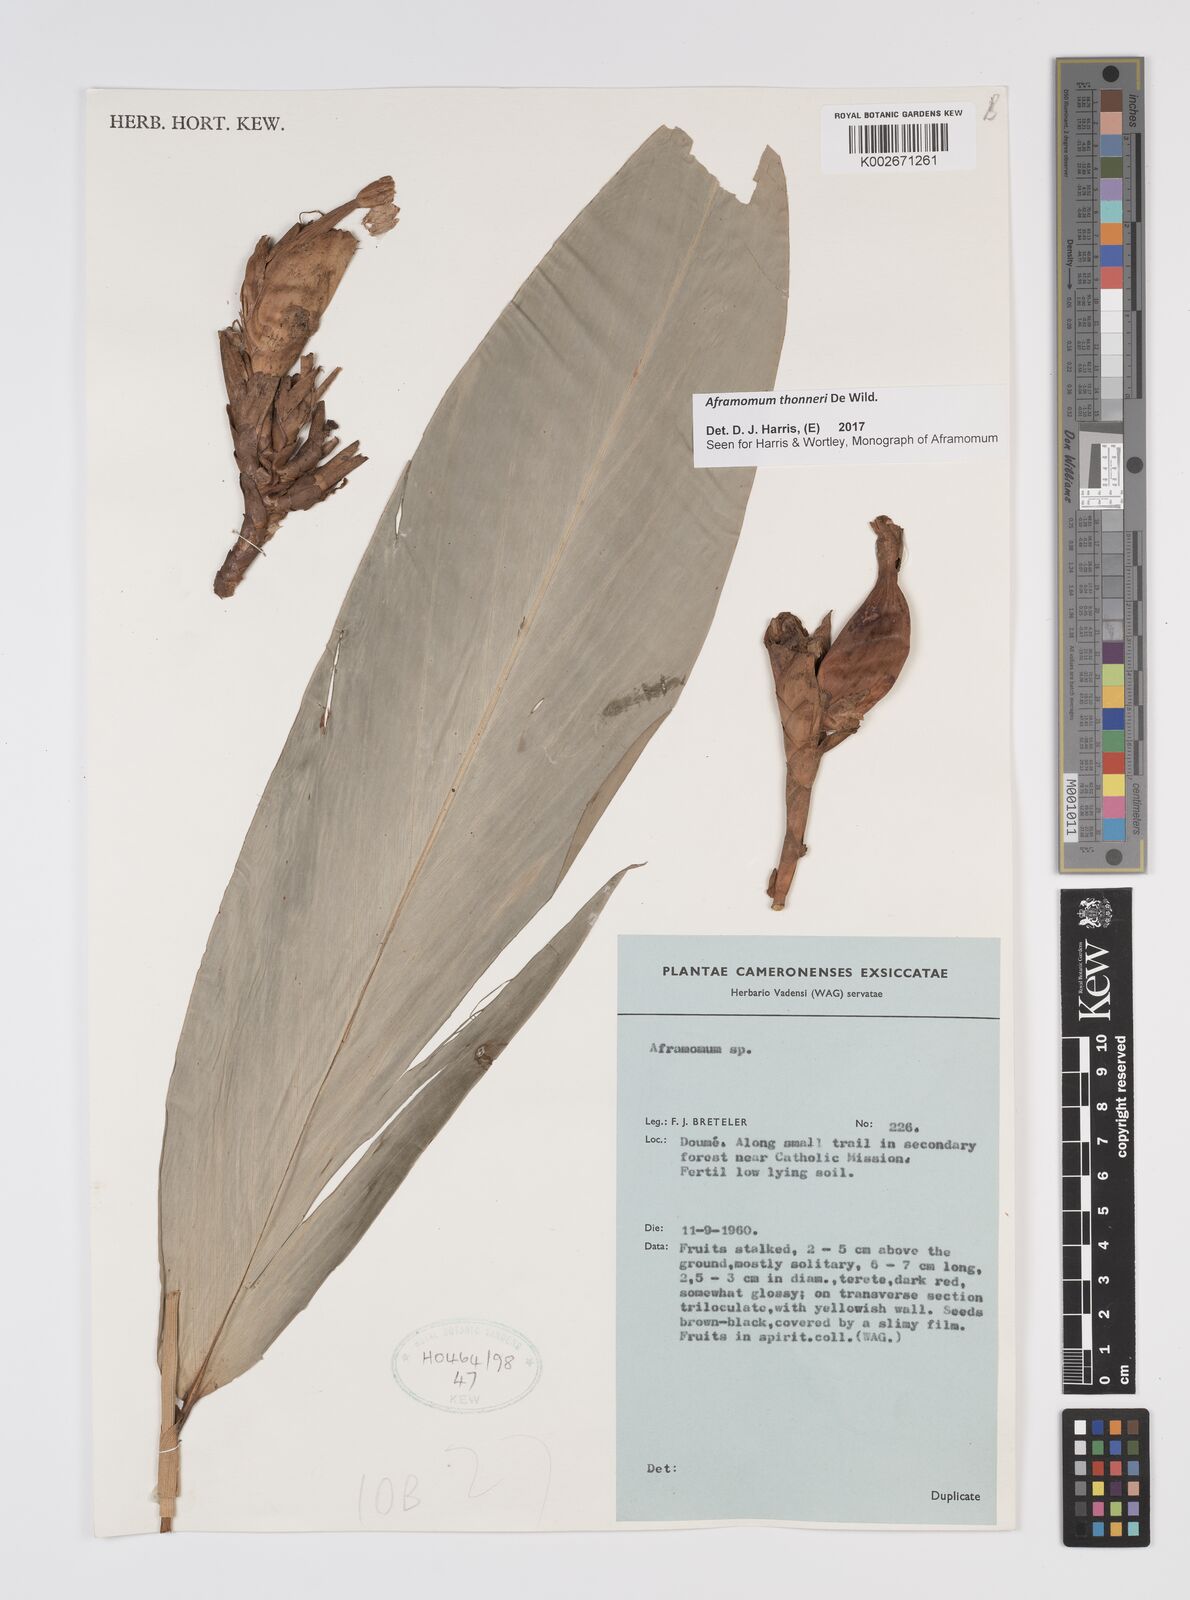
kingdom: Plantae
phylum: Tracheophyta
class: Liliopsida
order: Zingiberales
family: Zingiberaceae
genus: Aframomum
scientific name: Aframomum thonneri
